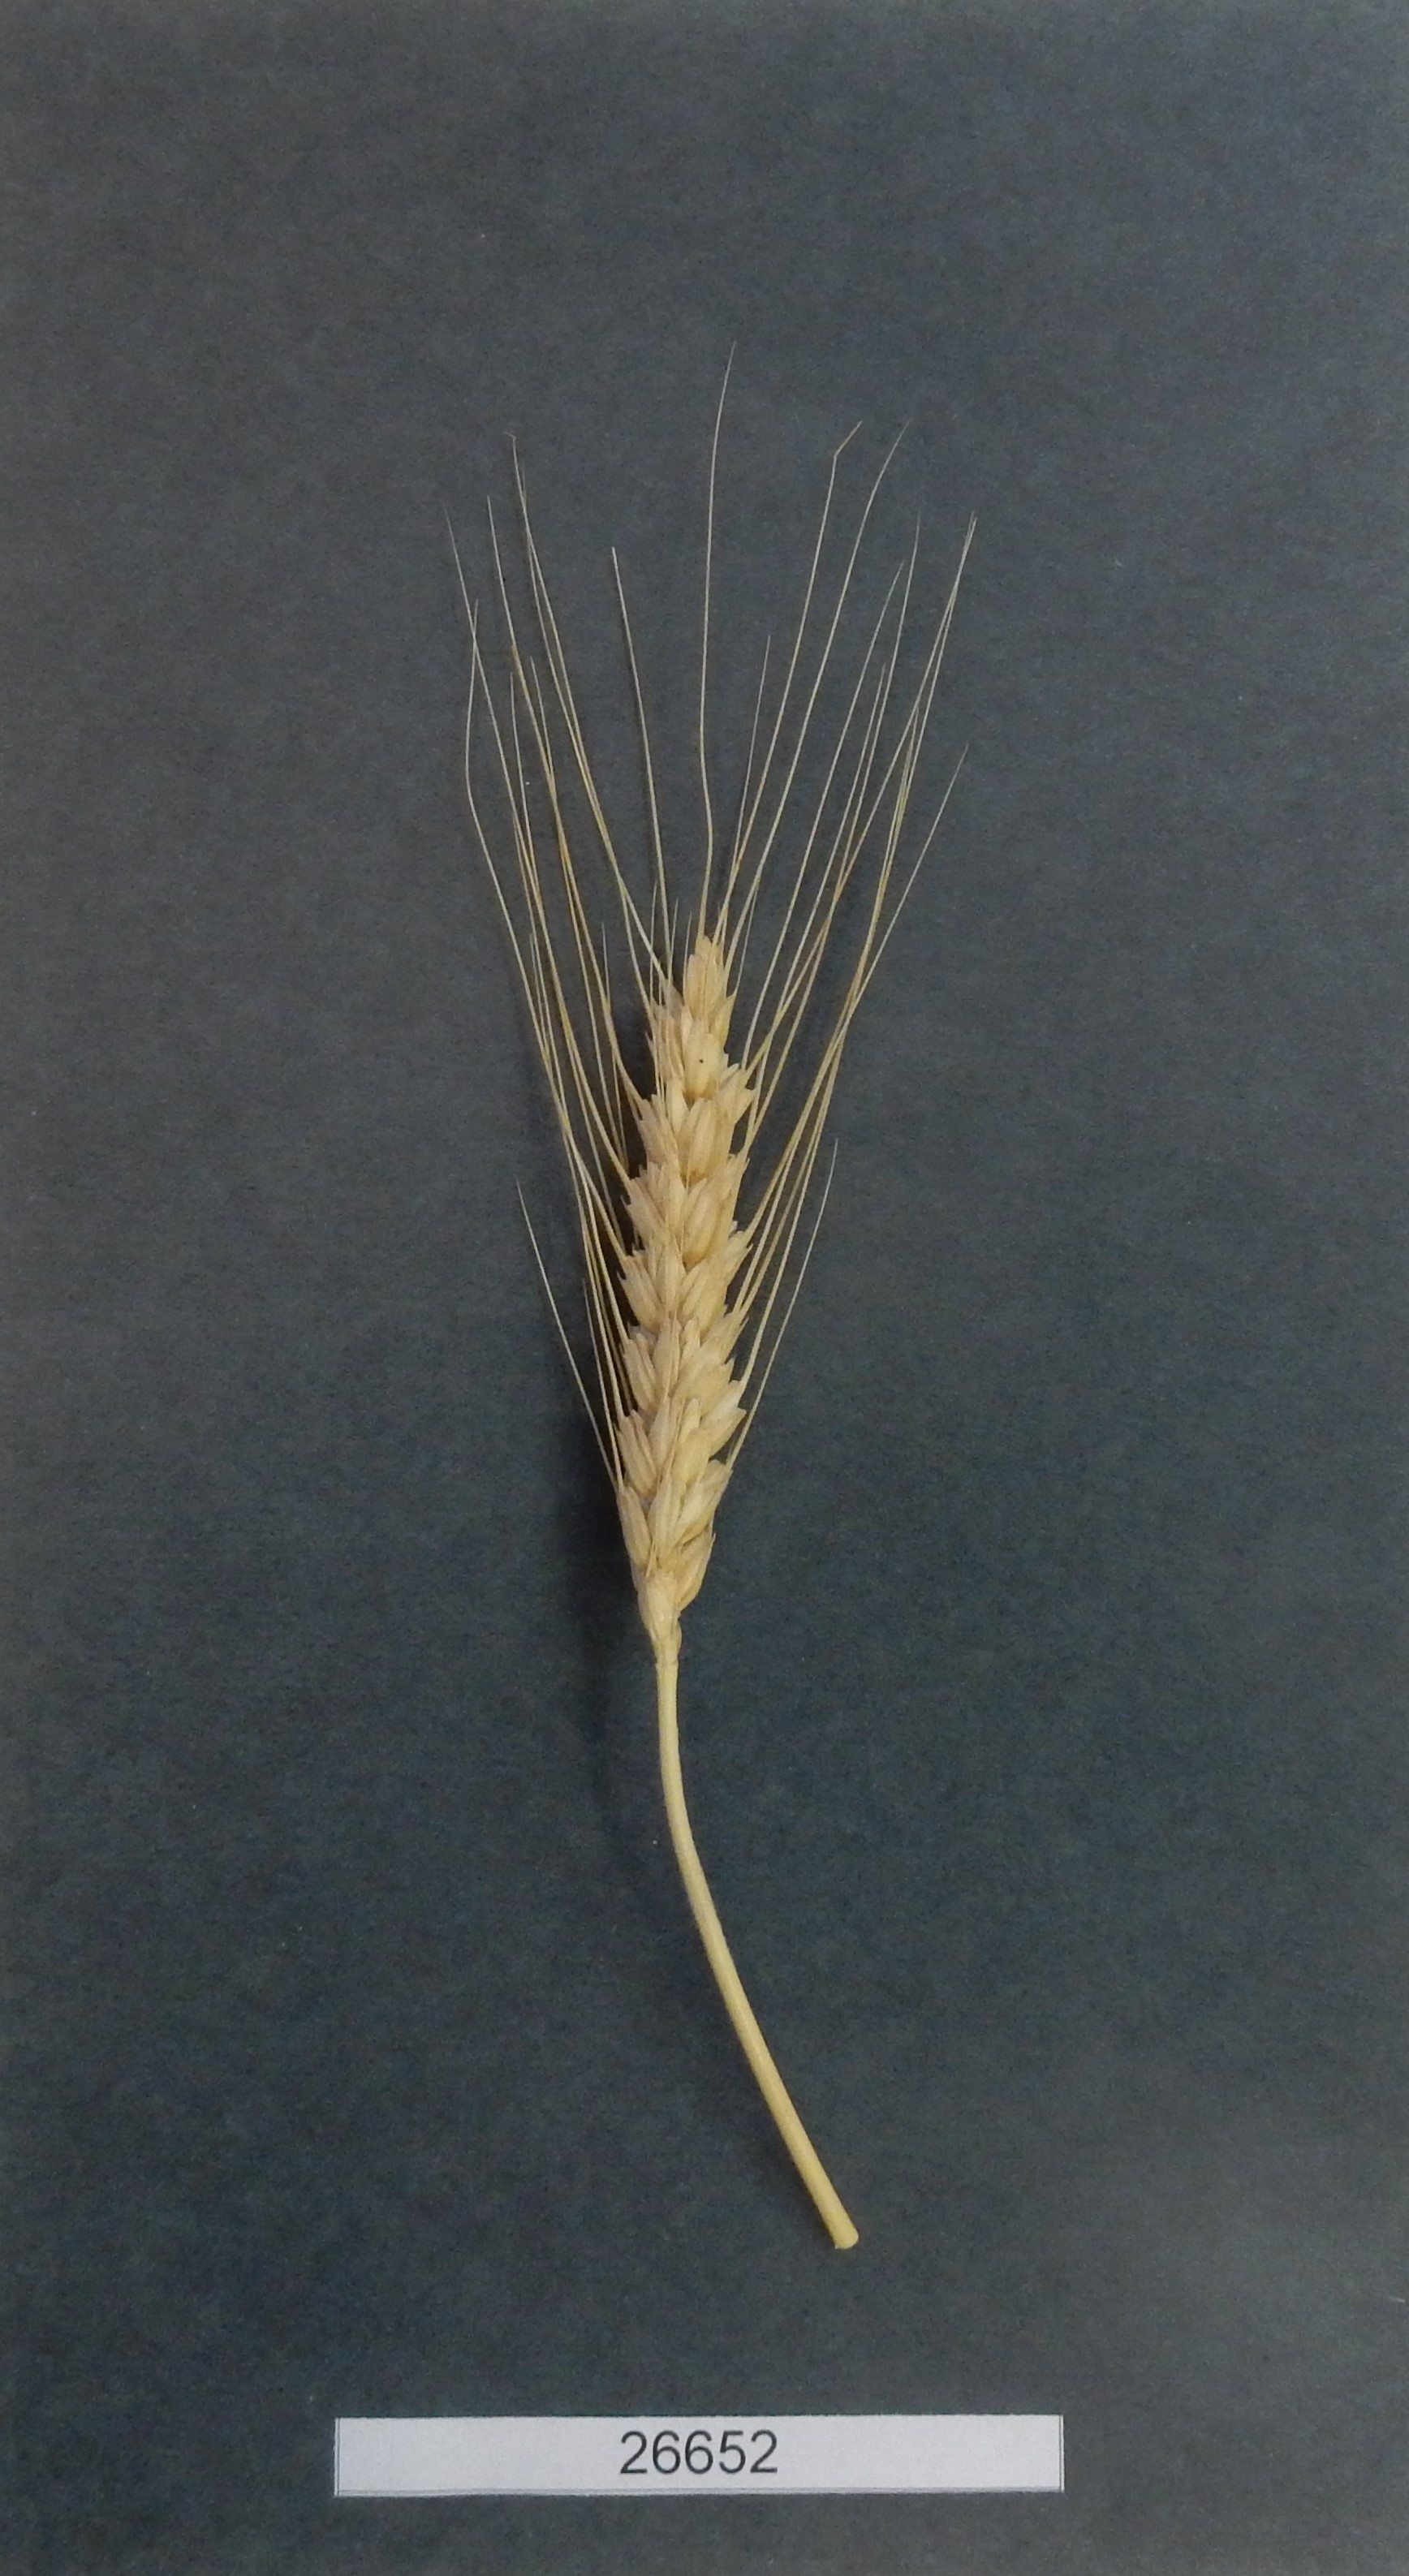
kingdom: Plantae
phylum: Tracheophyta
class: Liliopsida
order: Poales
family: Poaceae
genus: Triticum
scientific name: Triticum turgidum
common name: Wheat
